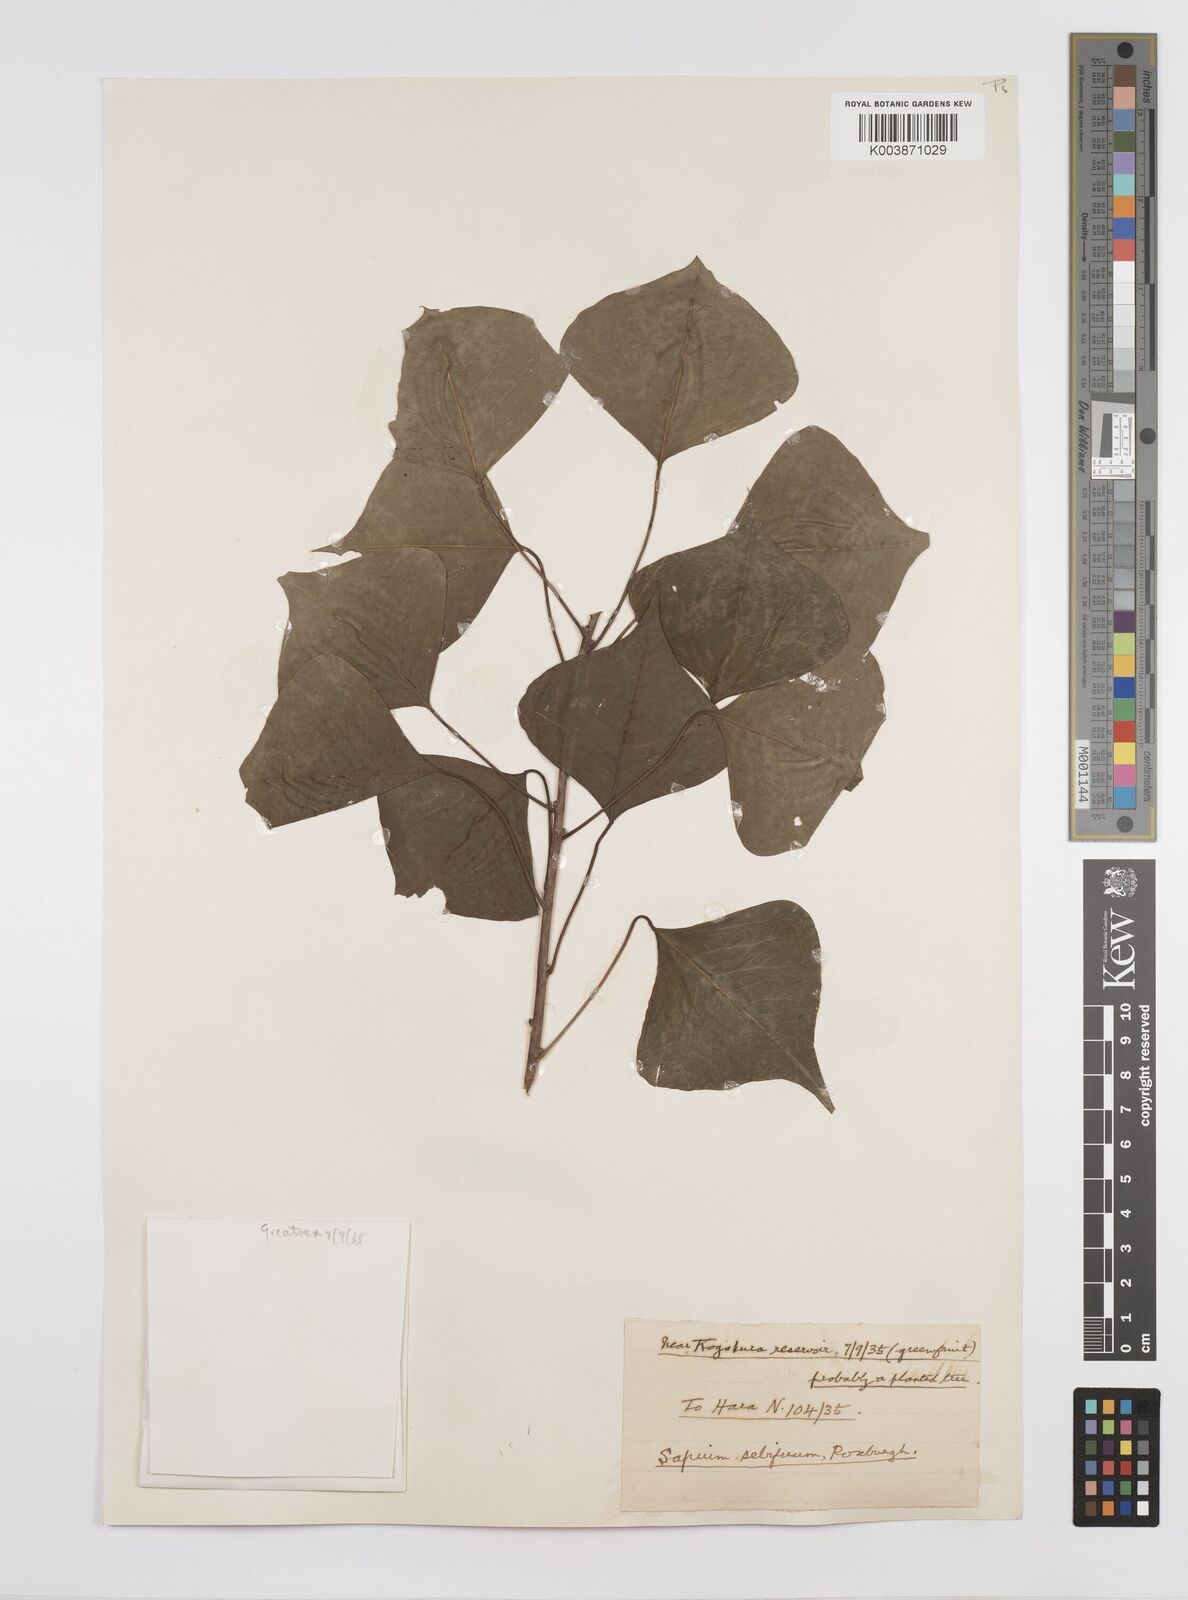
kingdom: Plantae
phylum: Tracheophyta
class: Magnoliopsida
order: Malpighiales
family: Euphorbiaceae
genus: Triadica
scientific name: Triadica sebifera
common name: Chinese tallow
